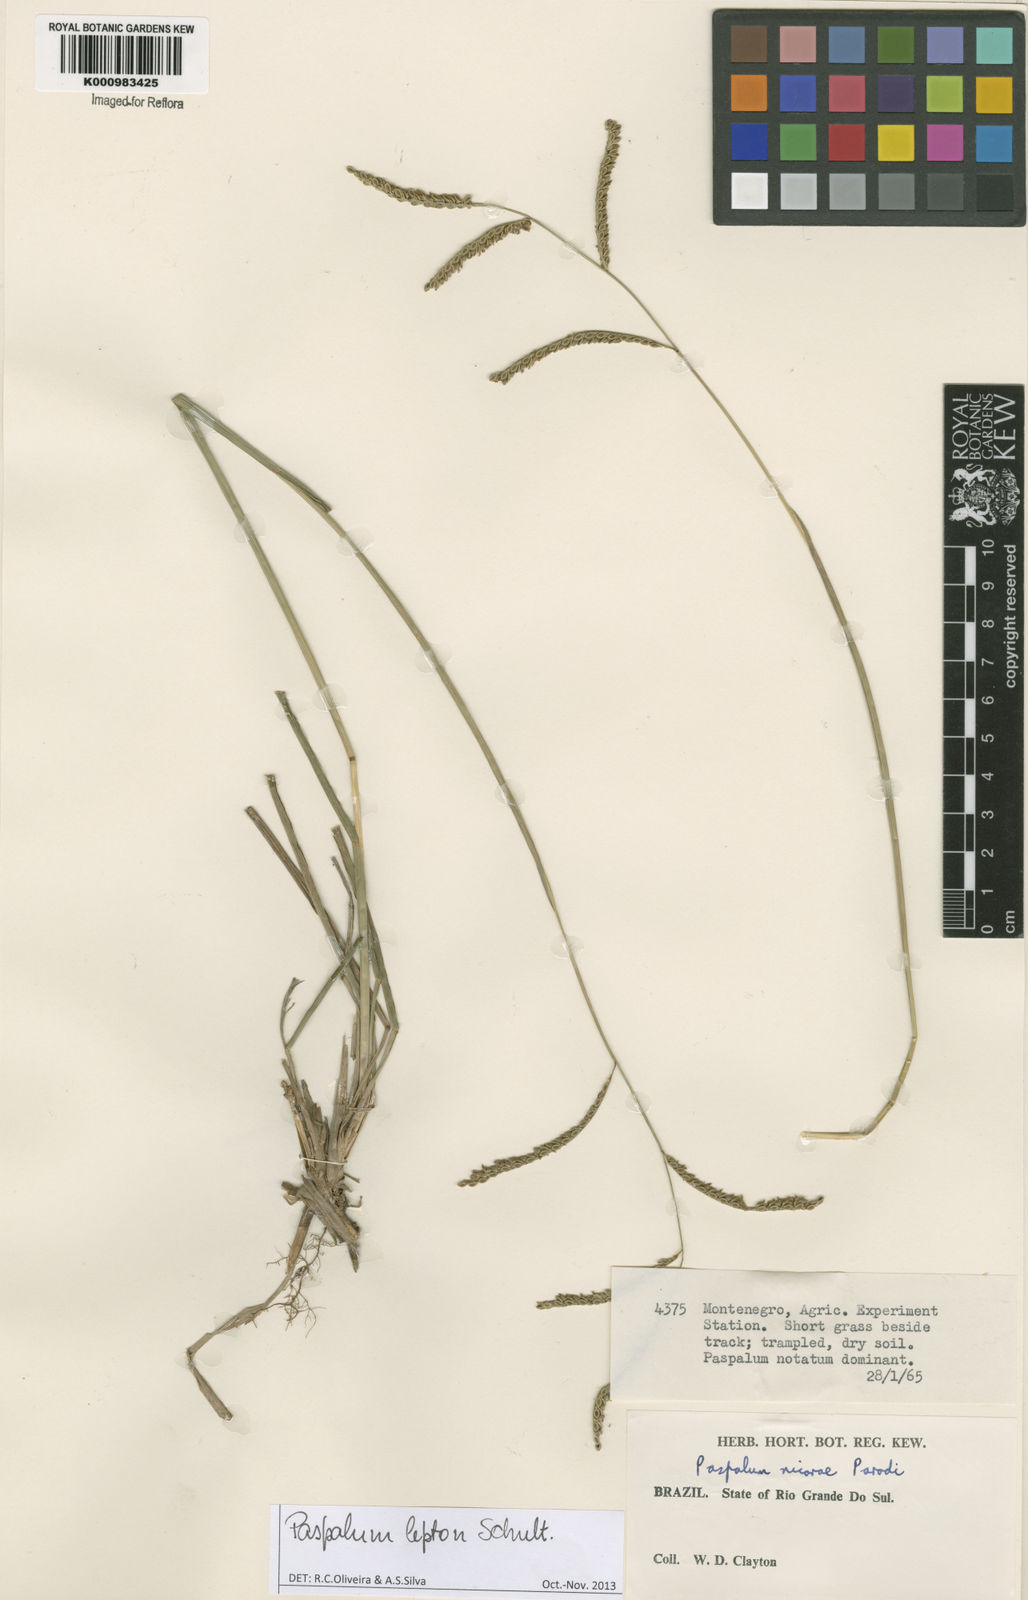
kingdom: Plantae
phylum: Tracheophyta
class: Liliopsida
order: Poales
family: Poaceae
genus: Paspalum
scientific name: Paspalum lepton
